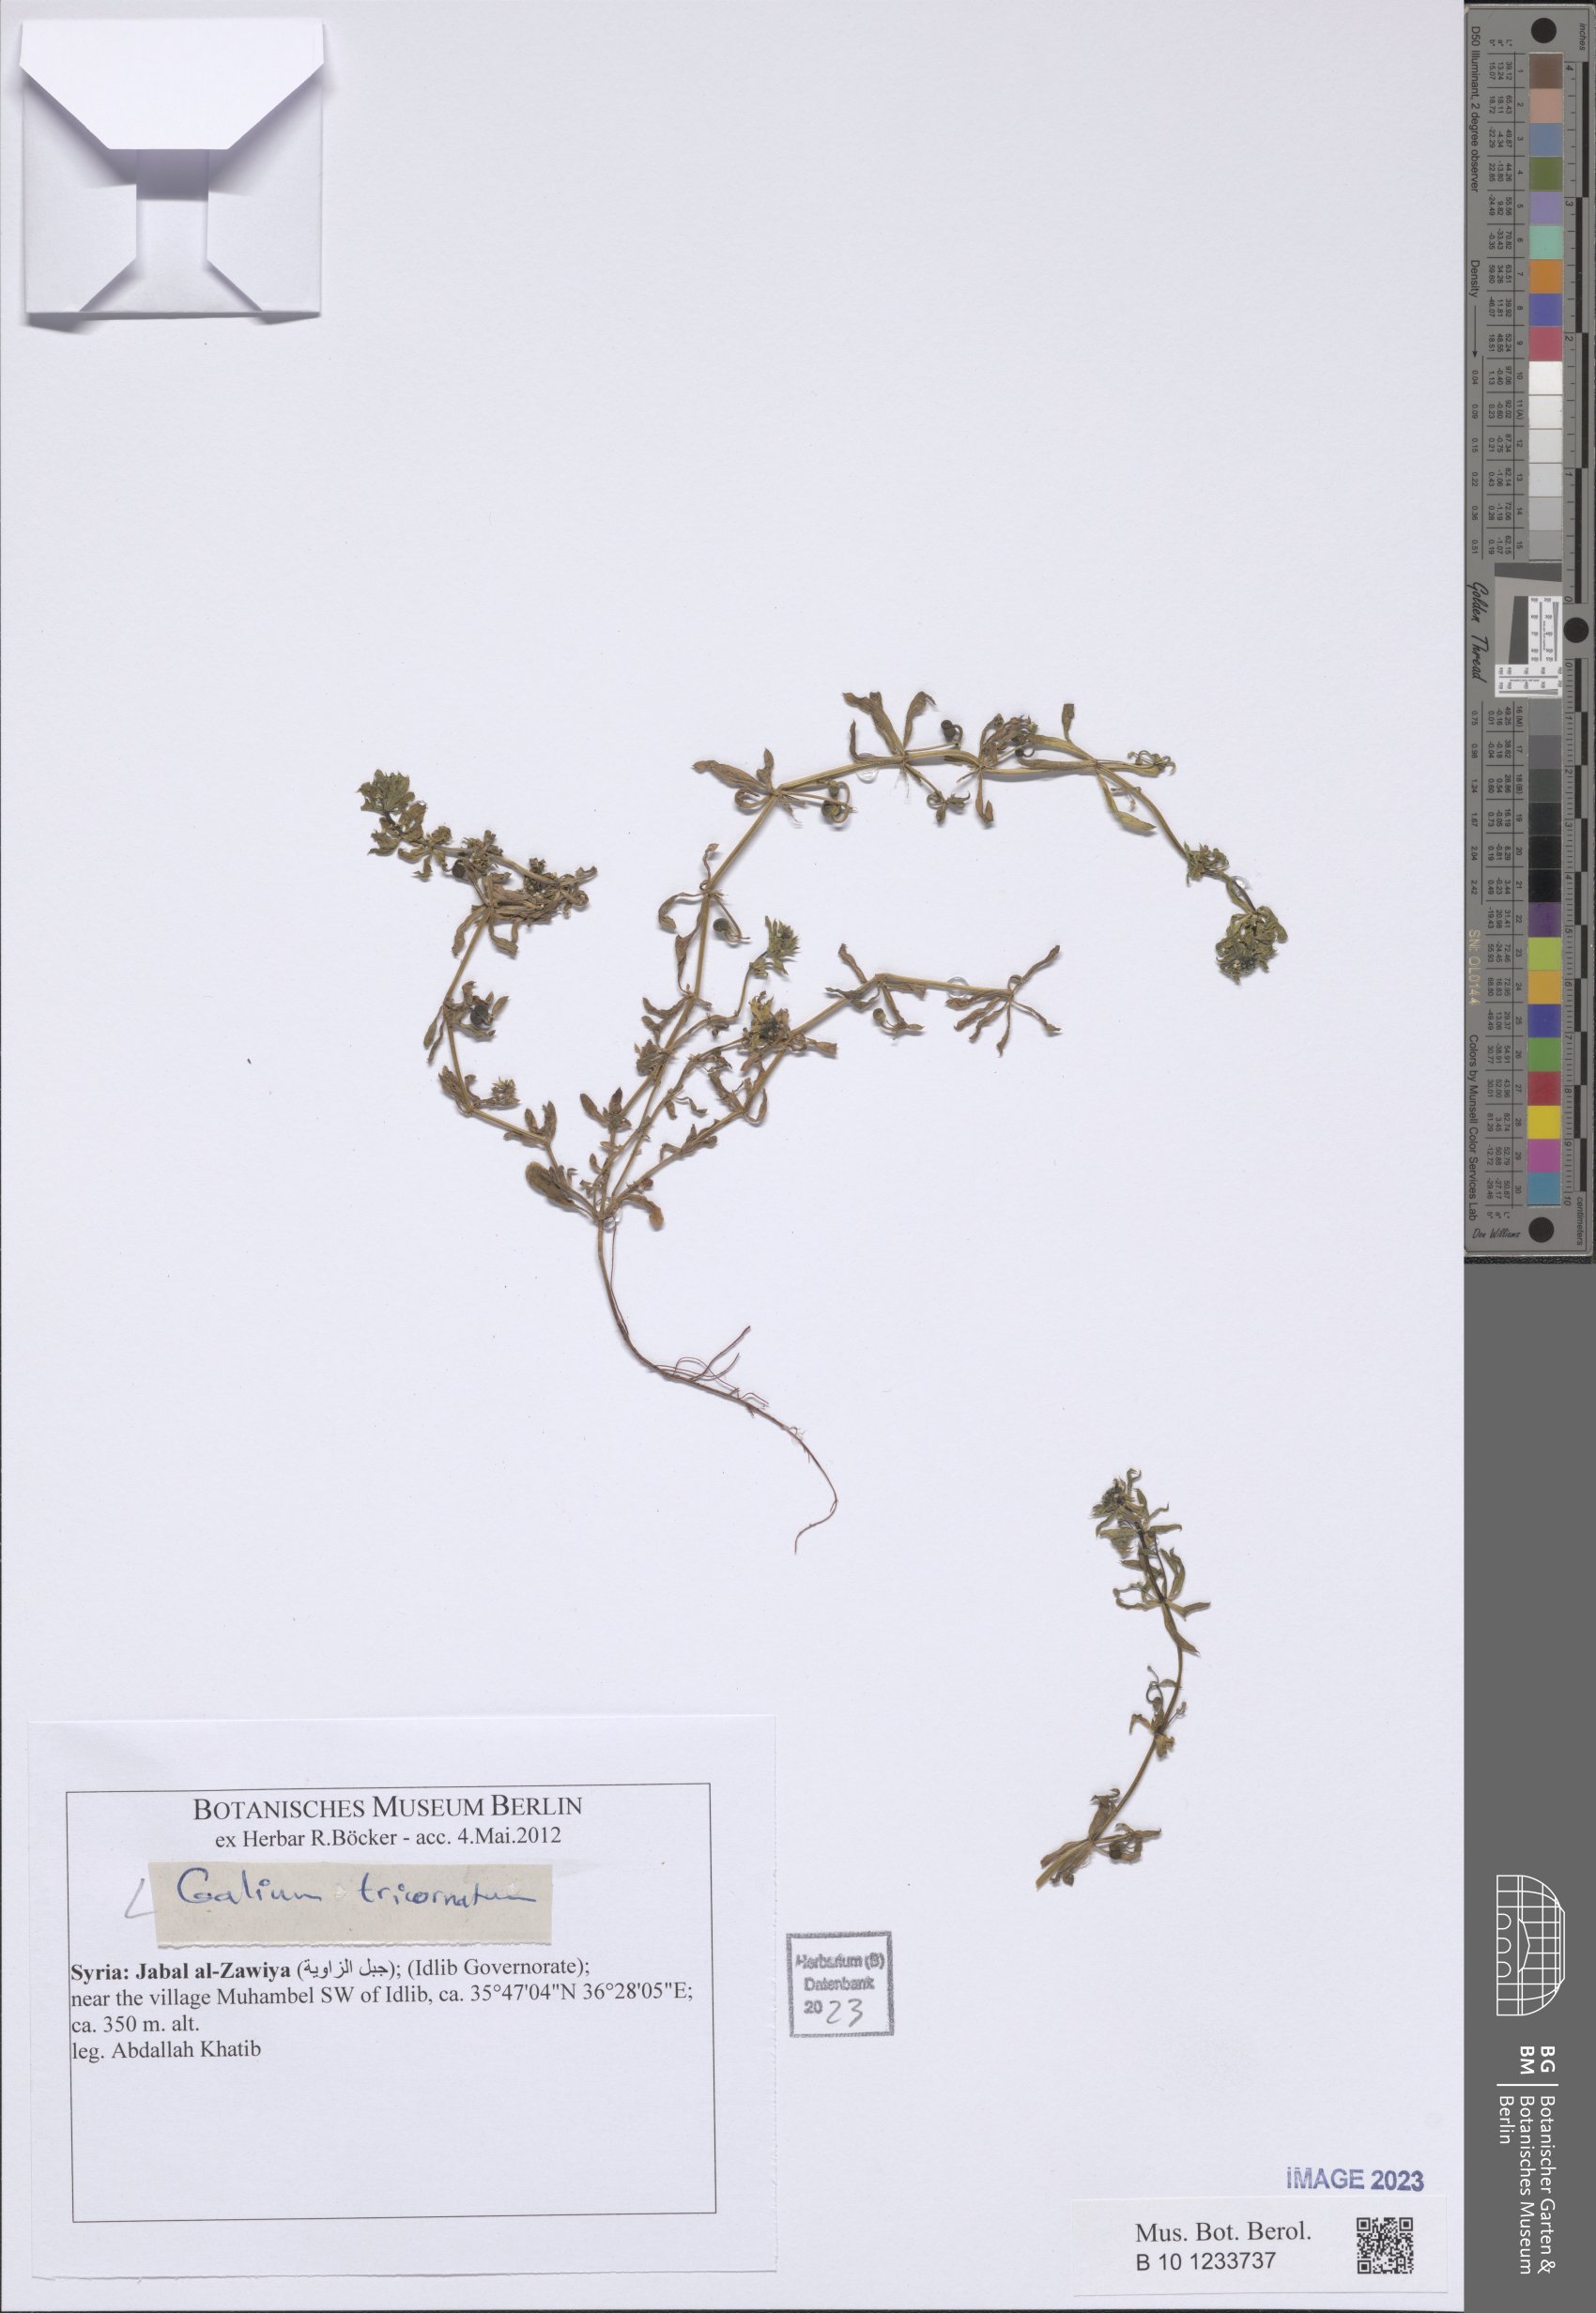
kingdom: Plantae
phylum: Tracheophyta
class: Magnoliopsida
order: Gentianales
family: Rubiaceae
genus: Galium
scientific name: Galium tricornutum
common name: Corn cleavers
